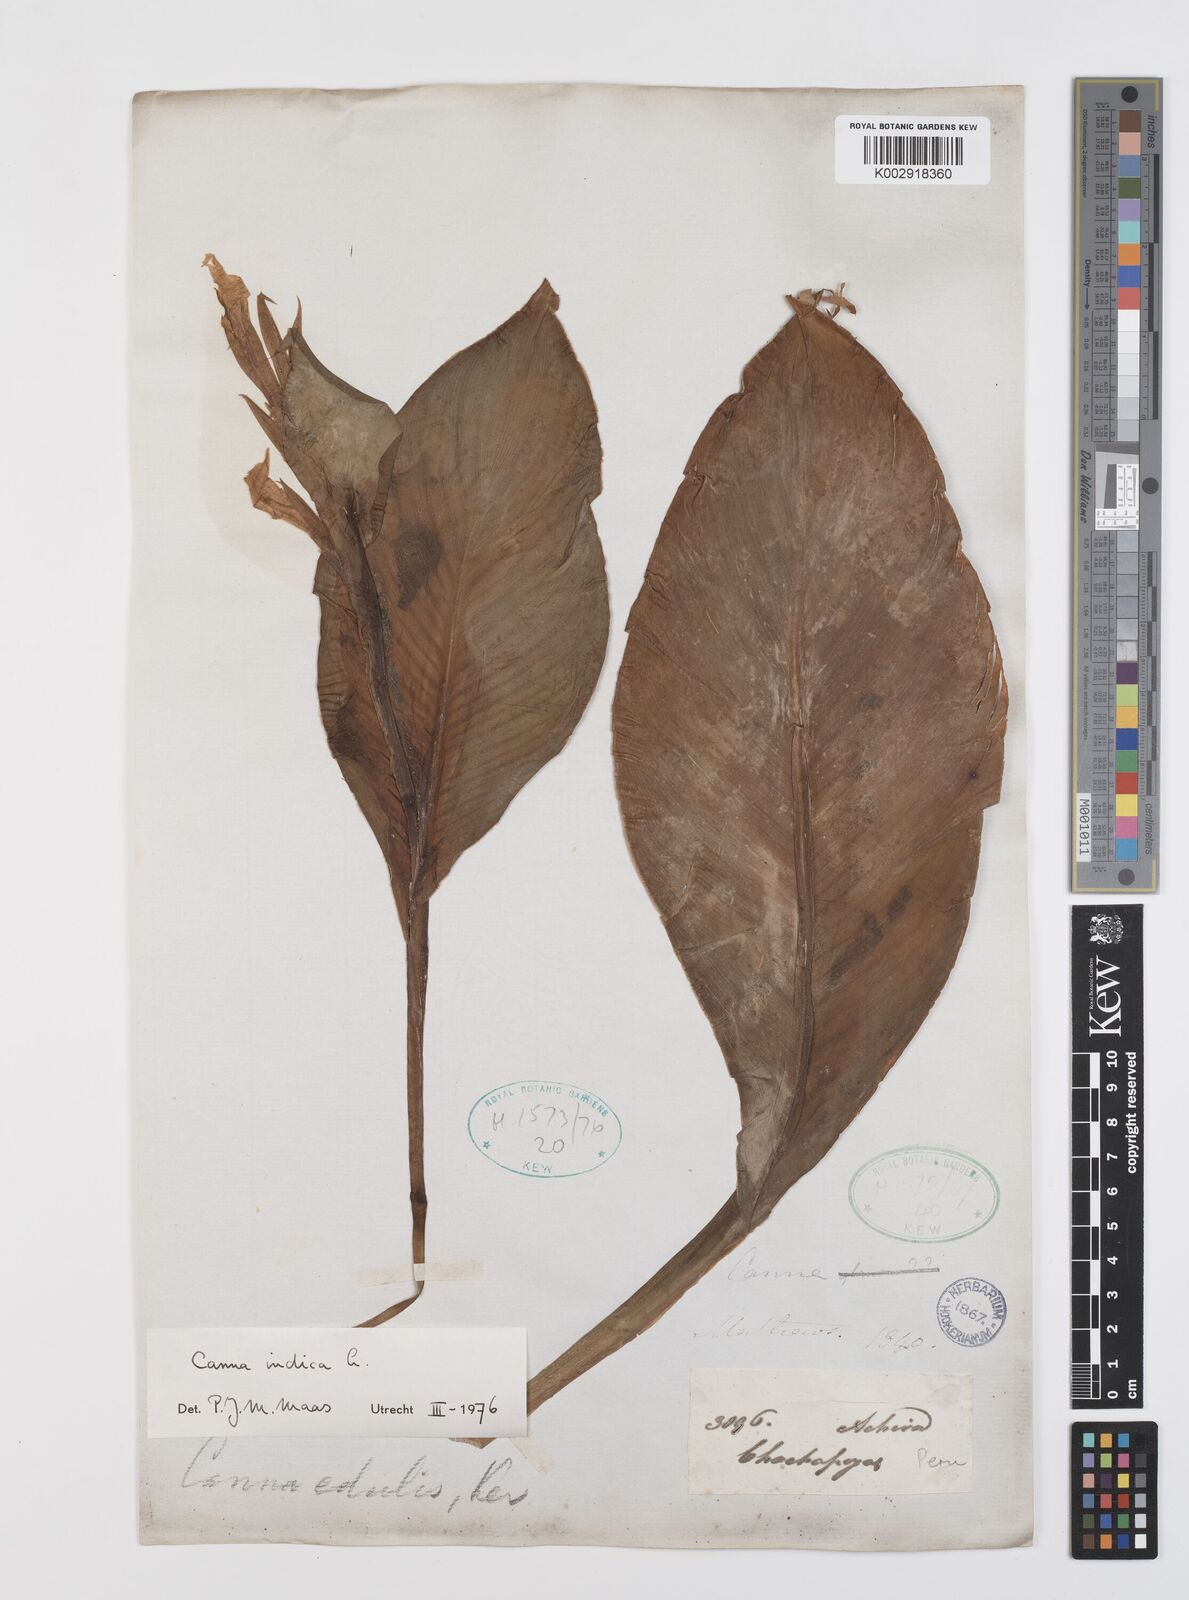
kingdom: Plantae
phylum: Tracheophyta
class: Liliopsida
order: Zingiberales
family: Cannaceae
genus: Canna
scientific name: Canna indica
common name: Indian shot
